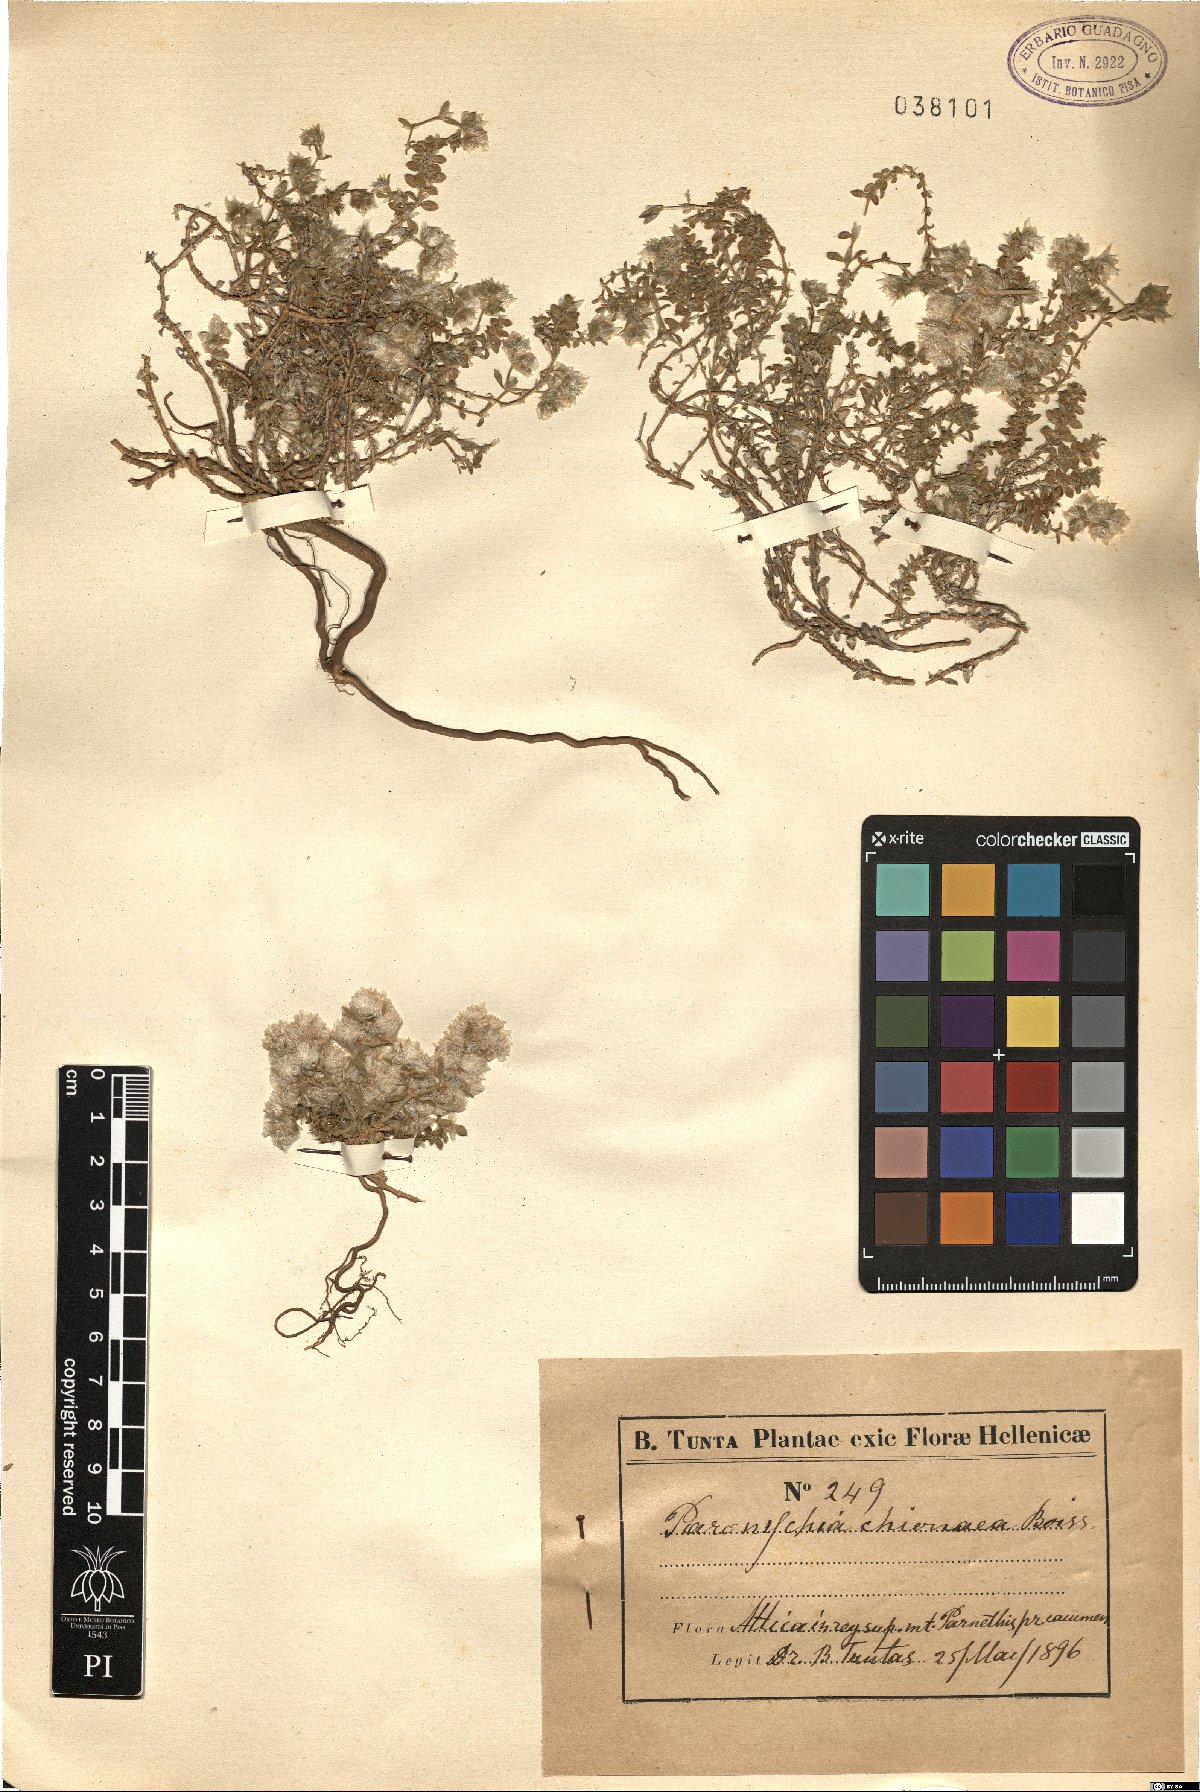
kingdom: Plantae
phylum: Tracheophyta
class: Magnoliopsida
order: Caryophyllales
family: Caryophyllaceae
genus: Paronychia
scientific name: Paronychia chionaea
